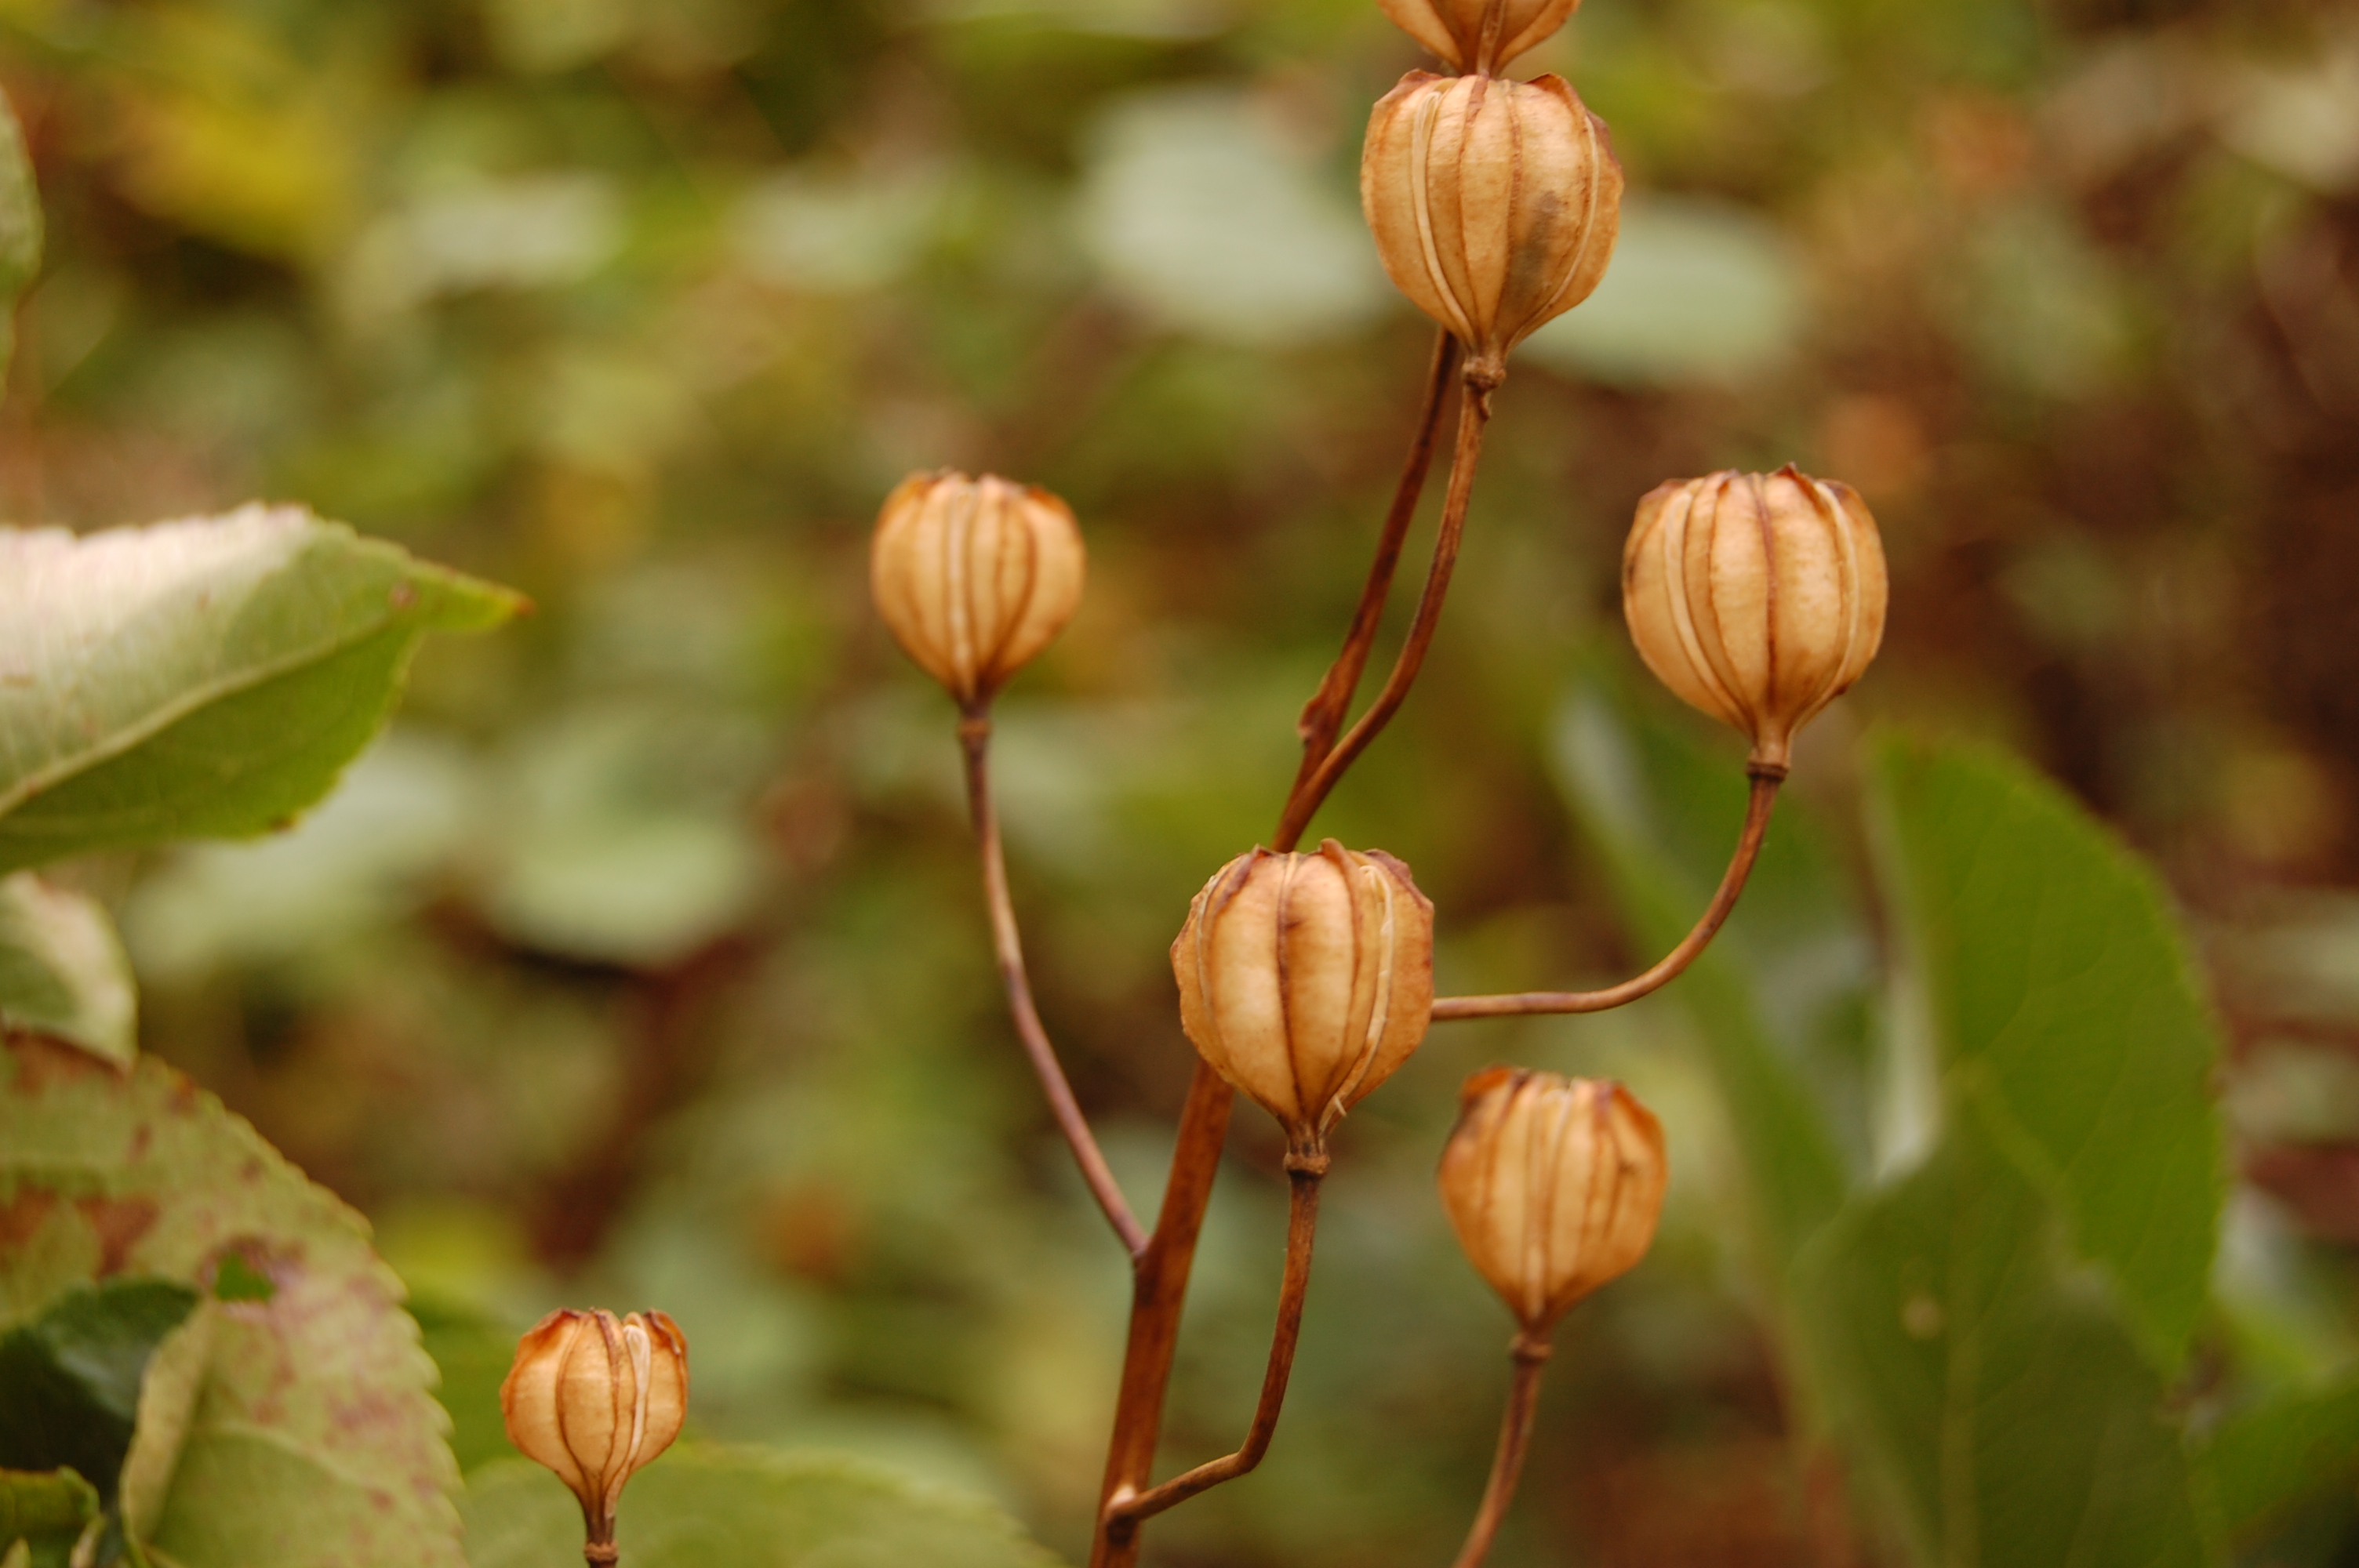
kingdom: Plantae
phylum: Tracheophyta
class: Liliopsida
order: Liliales
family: Liliaceae
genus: Lilium
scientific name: Lilium martagon
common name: Martagon lily
